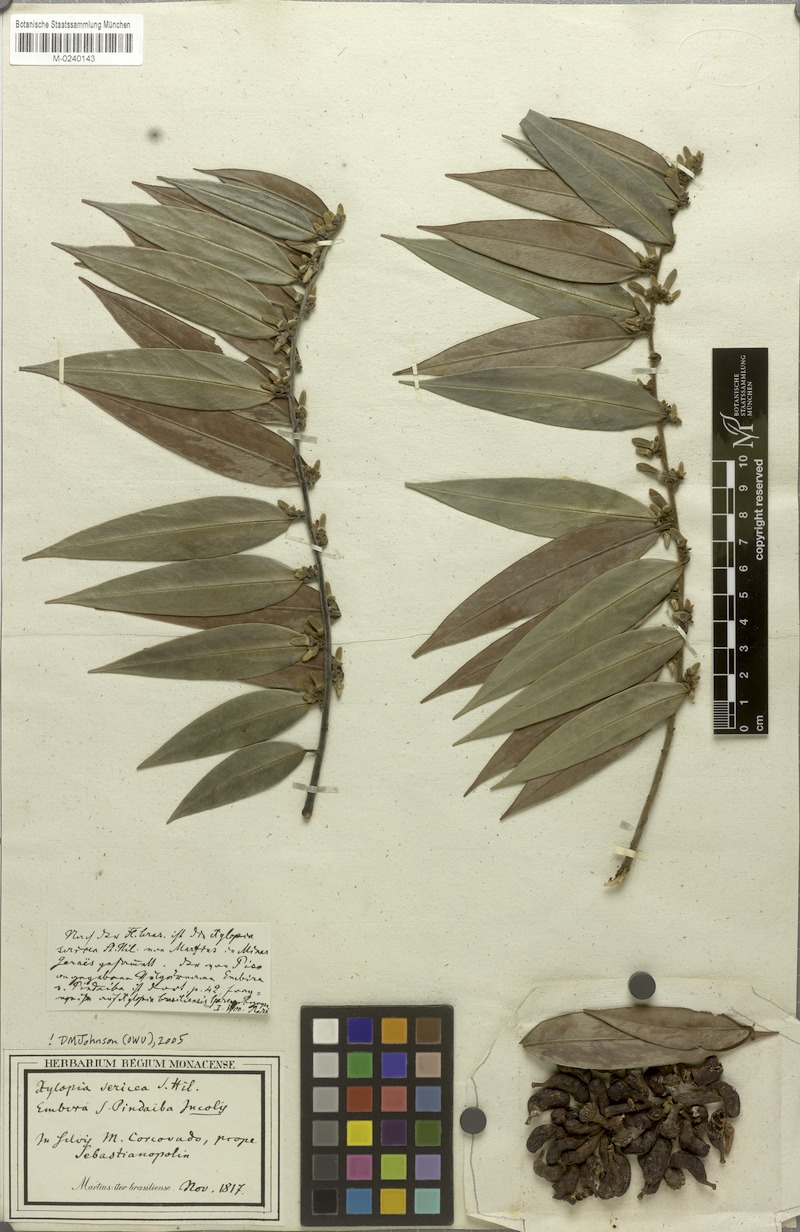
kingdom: Plantae
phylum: Tracheophyta
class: Magnoliopsida
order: Magnoliales
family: Annonaceae
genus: Xylopia
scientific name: Xylopia sericea
